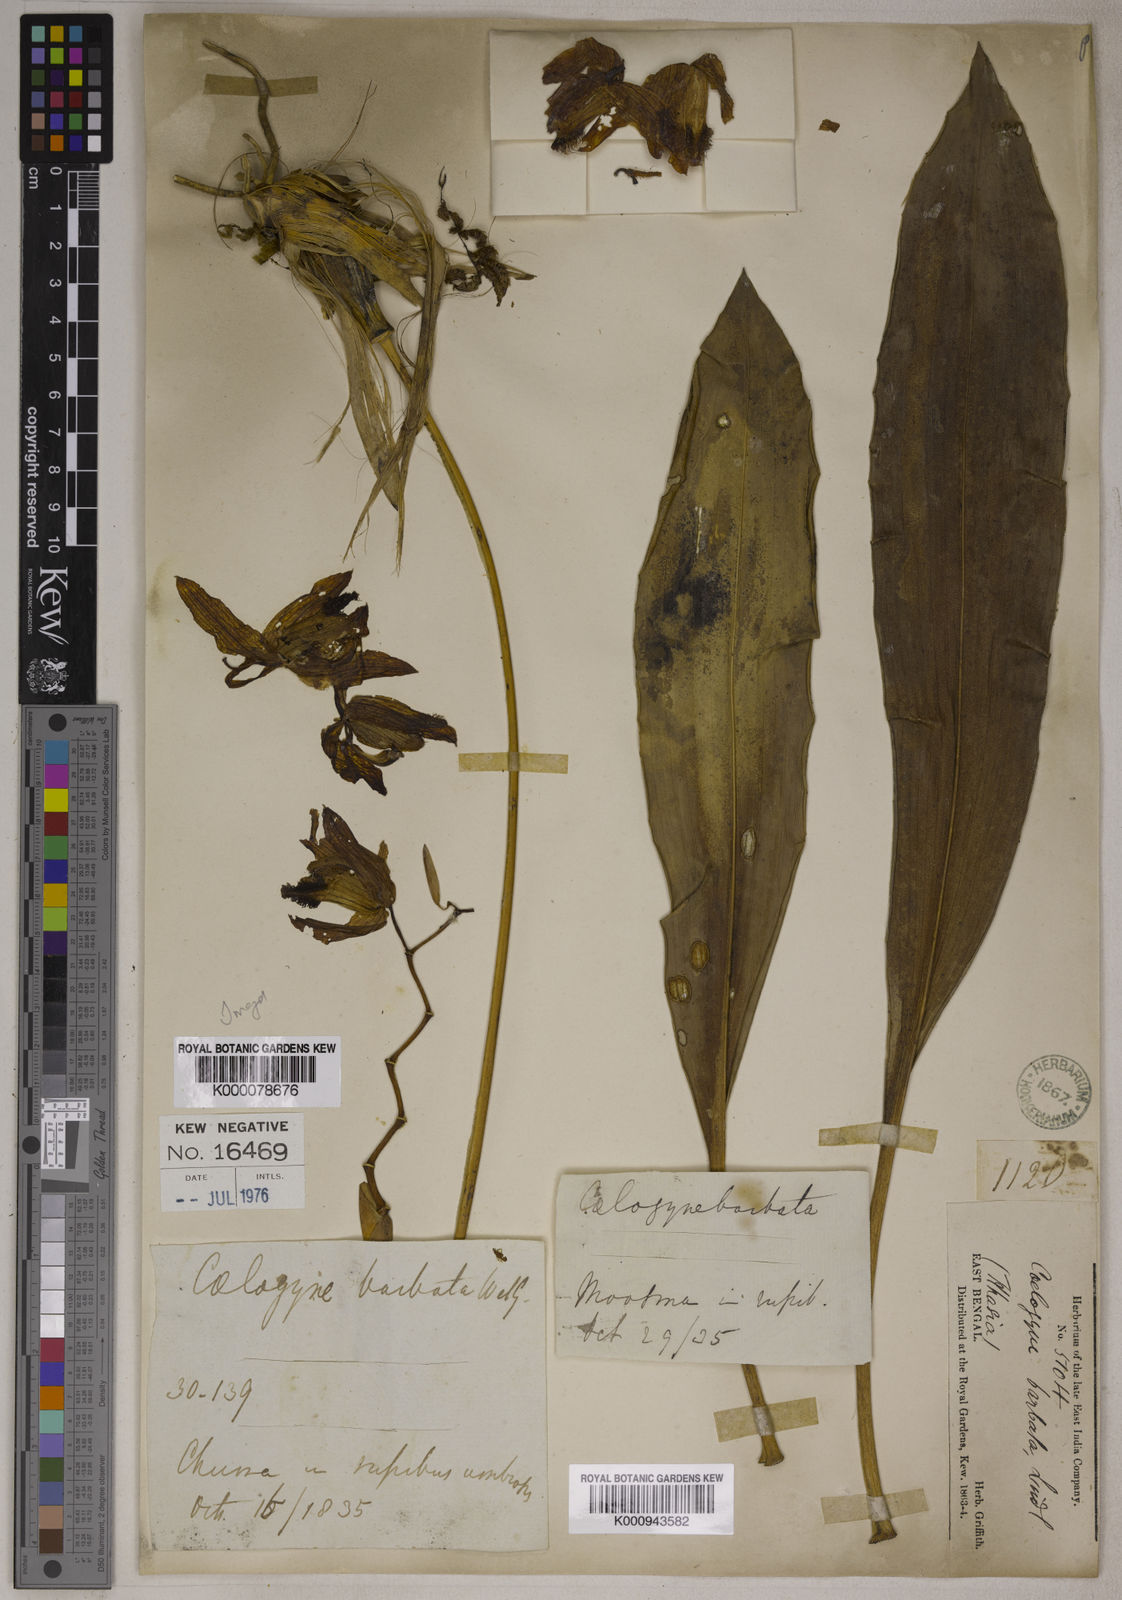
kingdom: Plantae
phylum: Tracheophyta
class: Liliopsida
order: Asparagales
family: Orchidaceae
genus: Coelogyne
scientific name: Coelogyne barbata
